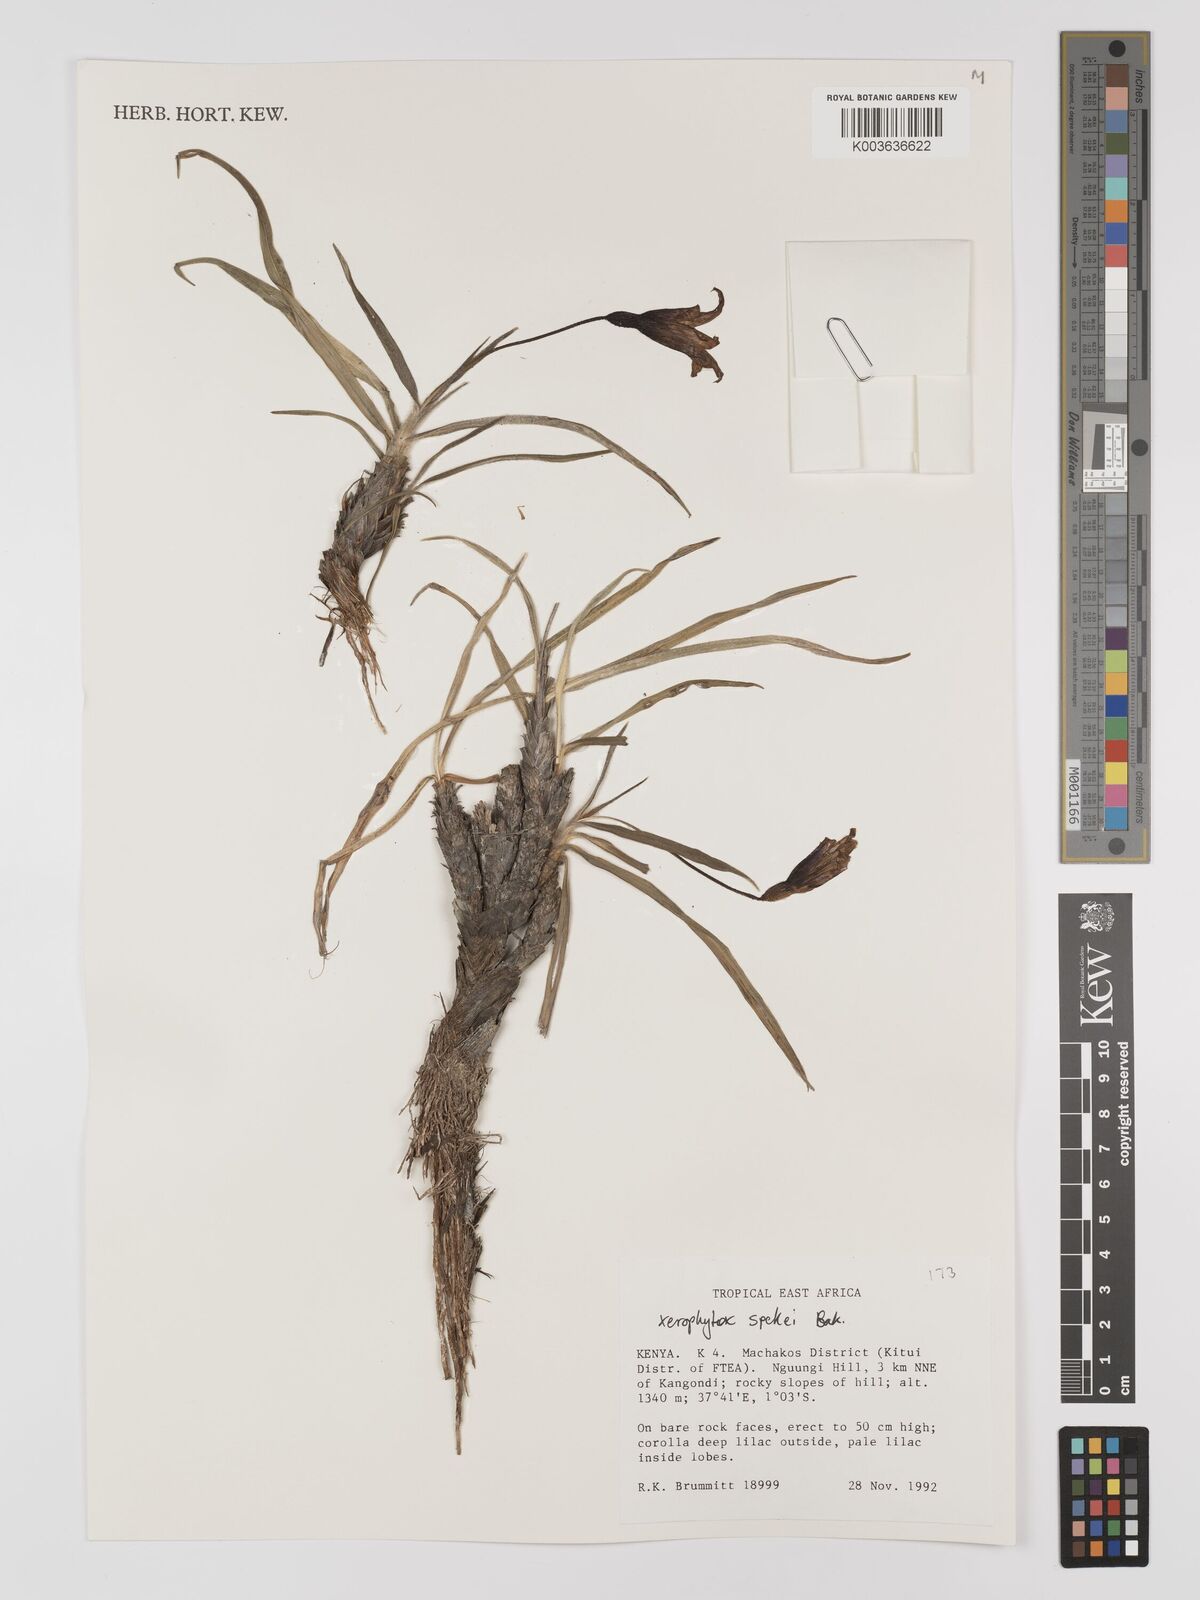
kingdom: Plantae
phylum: Tracheophyta
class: Liliopsida
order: Pandanales
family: Velloziaceae
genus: Xerophyta
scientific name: Xerophyta spekei
